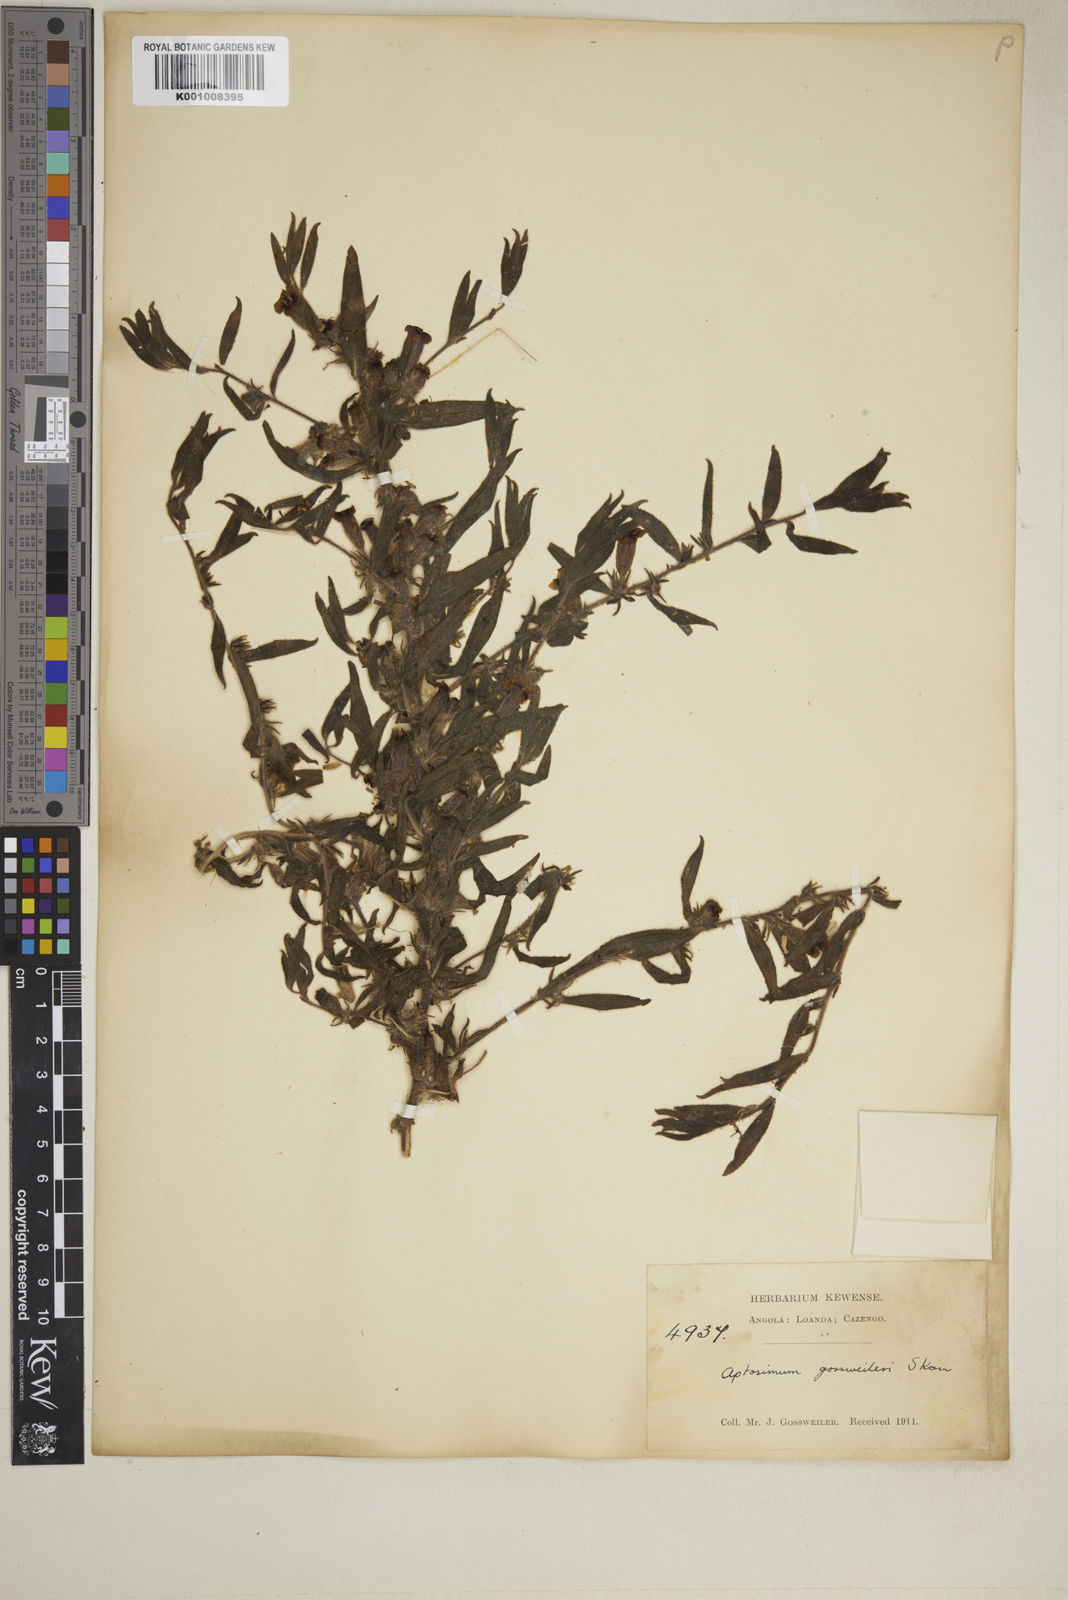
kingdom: Plantae
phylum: Tracheophyta
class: Magnoliopsida
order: Lamiales
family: Scrophulariaceae
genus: Aptosimum
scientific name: Aptosimum gossweileri
